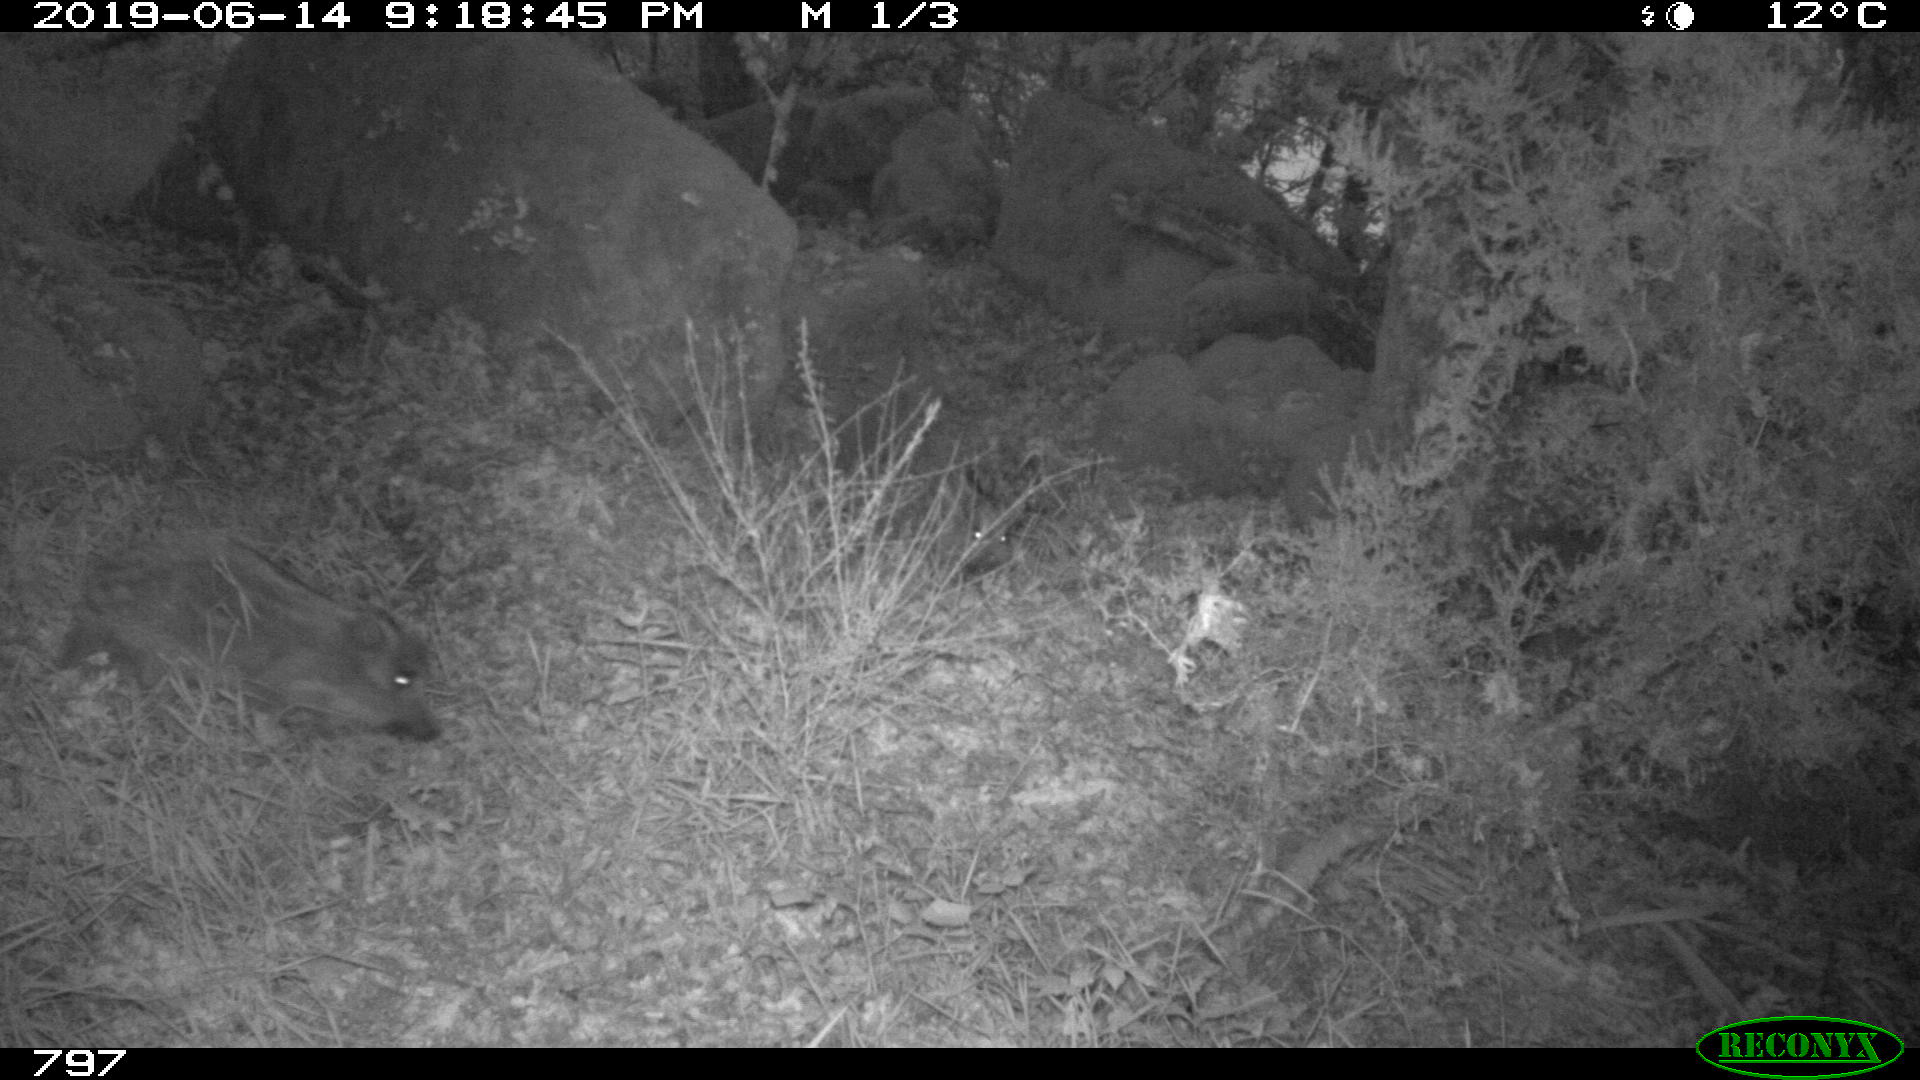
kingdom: Animalia
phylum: Chordata
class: Mammalia
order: Artiodactyla
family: Suidae
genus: Sus
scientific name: Sus scrofa
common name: Wild boar
